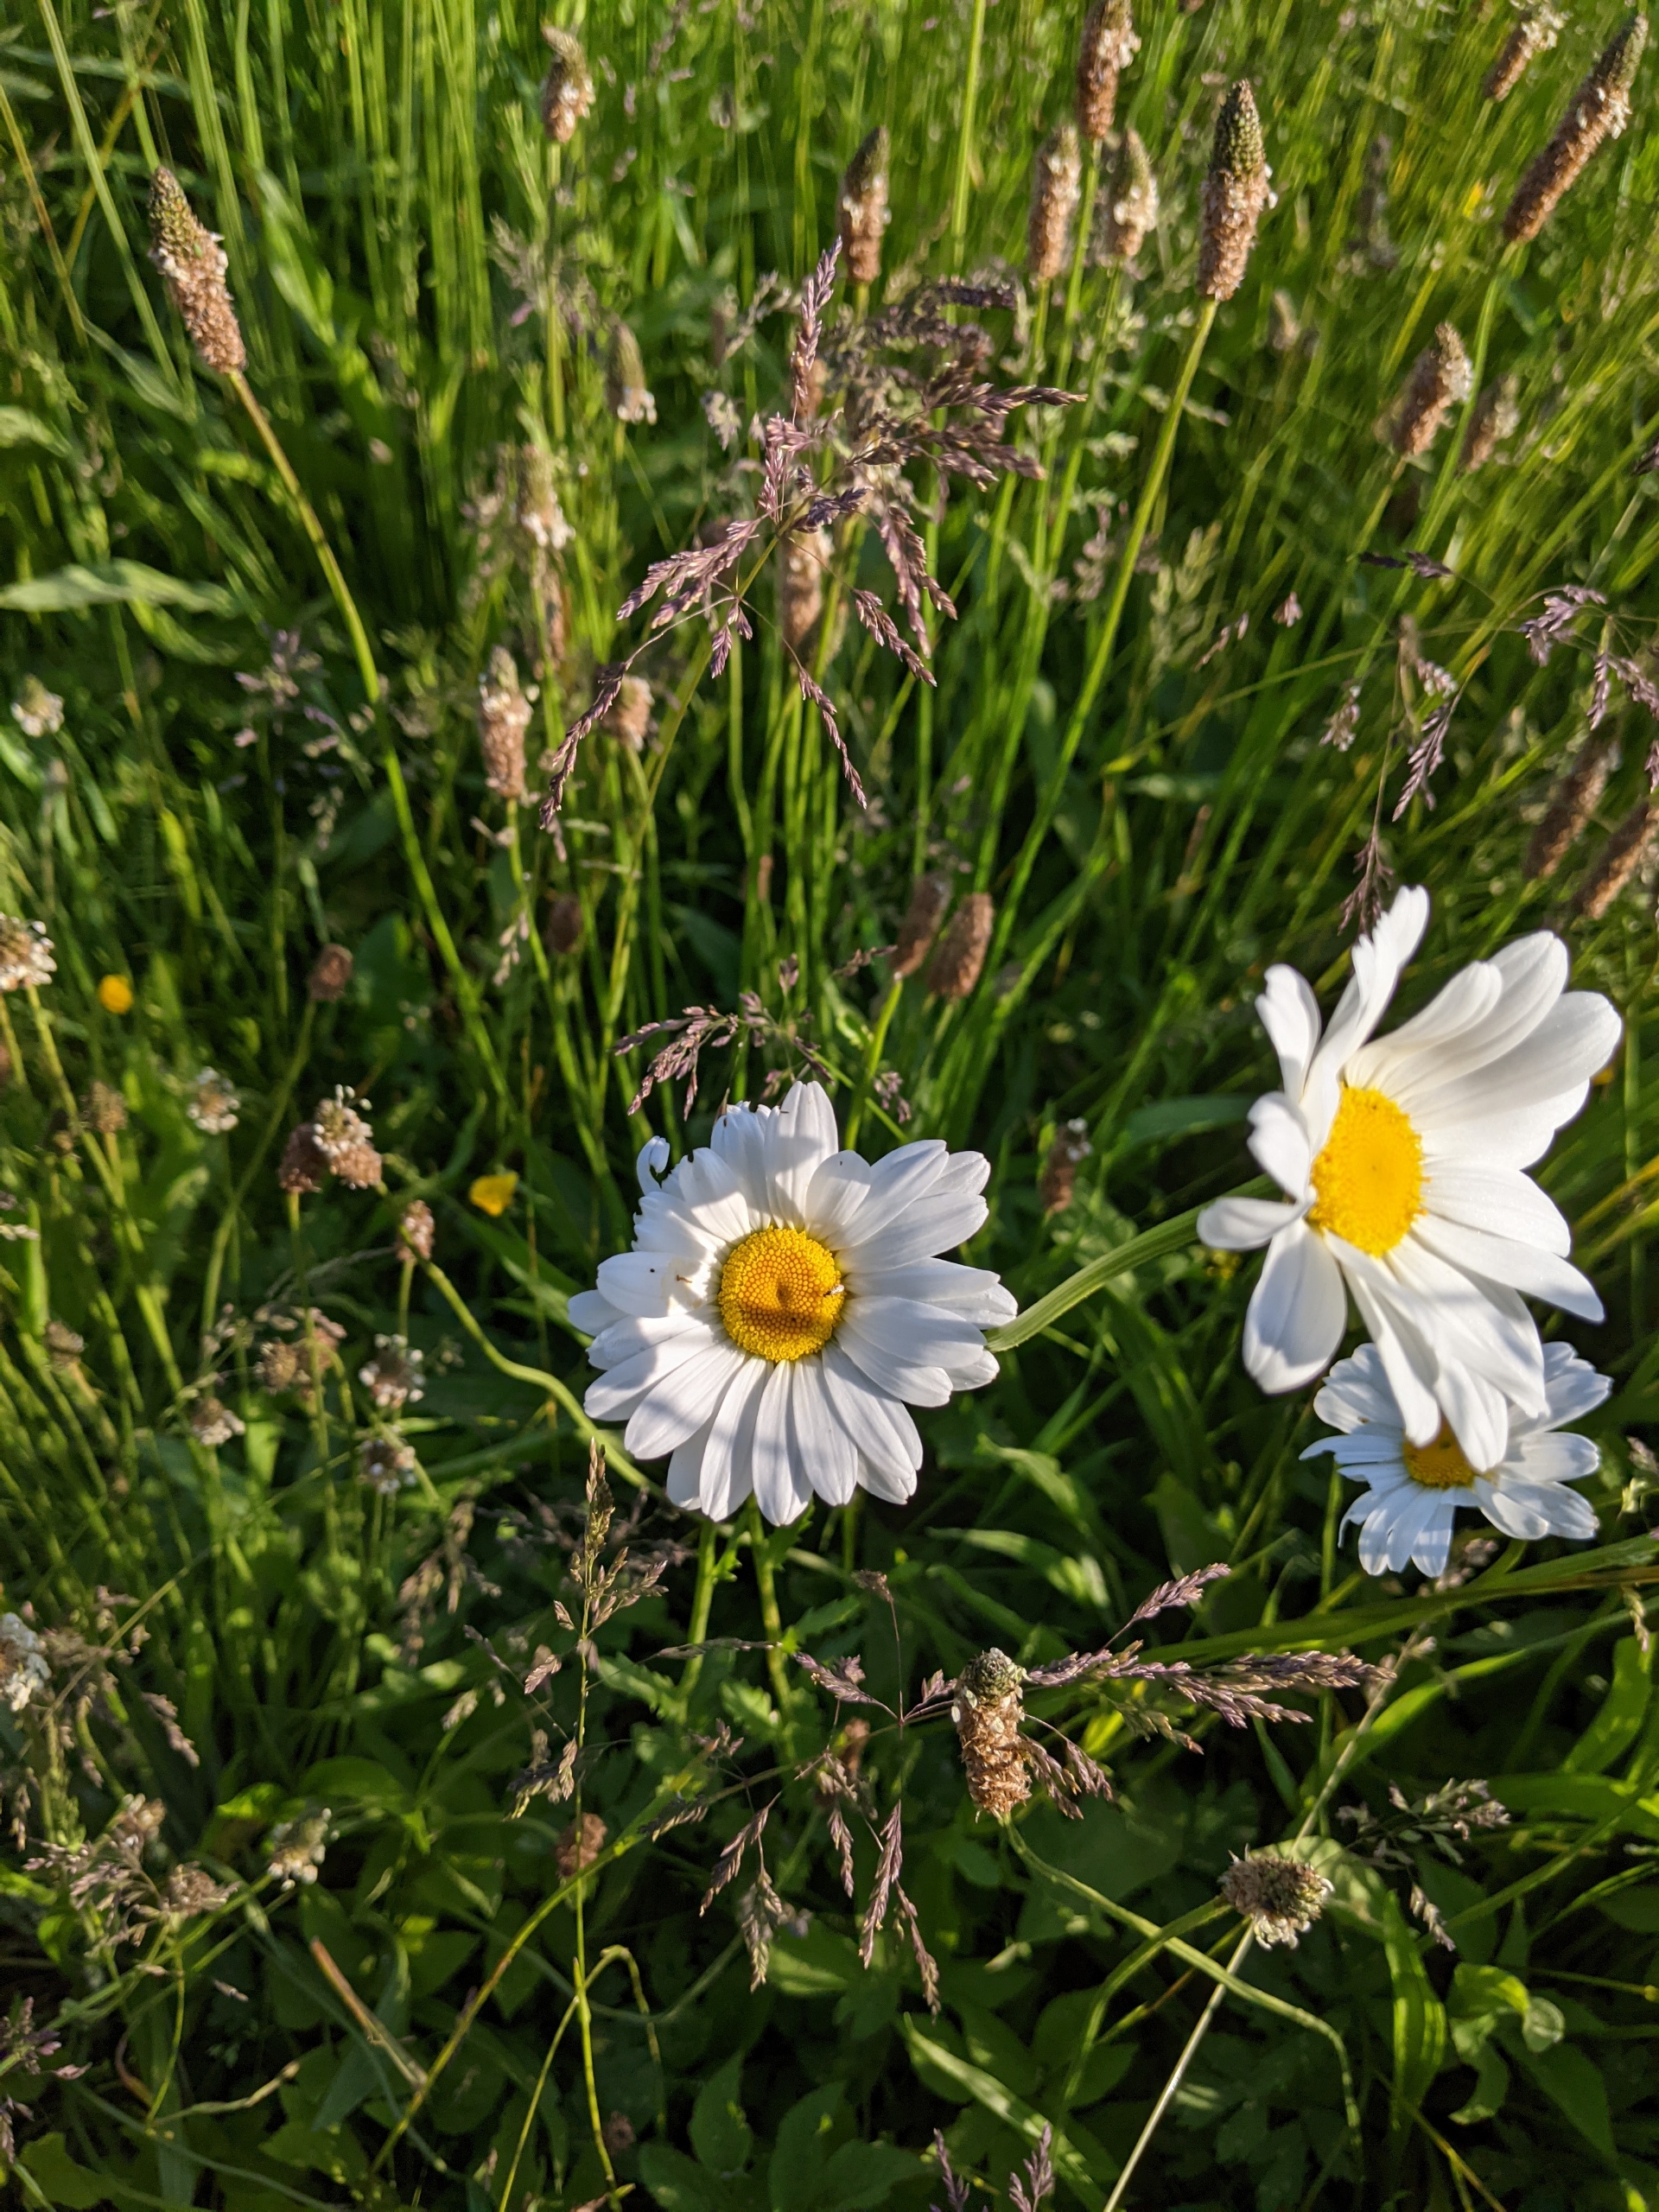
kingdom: Plantae
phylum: Tracheophyta
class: Magnoliopsida
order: Asterales
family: Asteraceae
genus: Leucanthemum
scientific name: Leucanthemum vulgare
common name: Hvid okseøje
